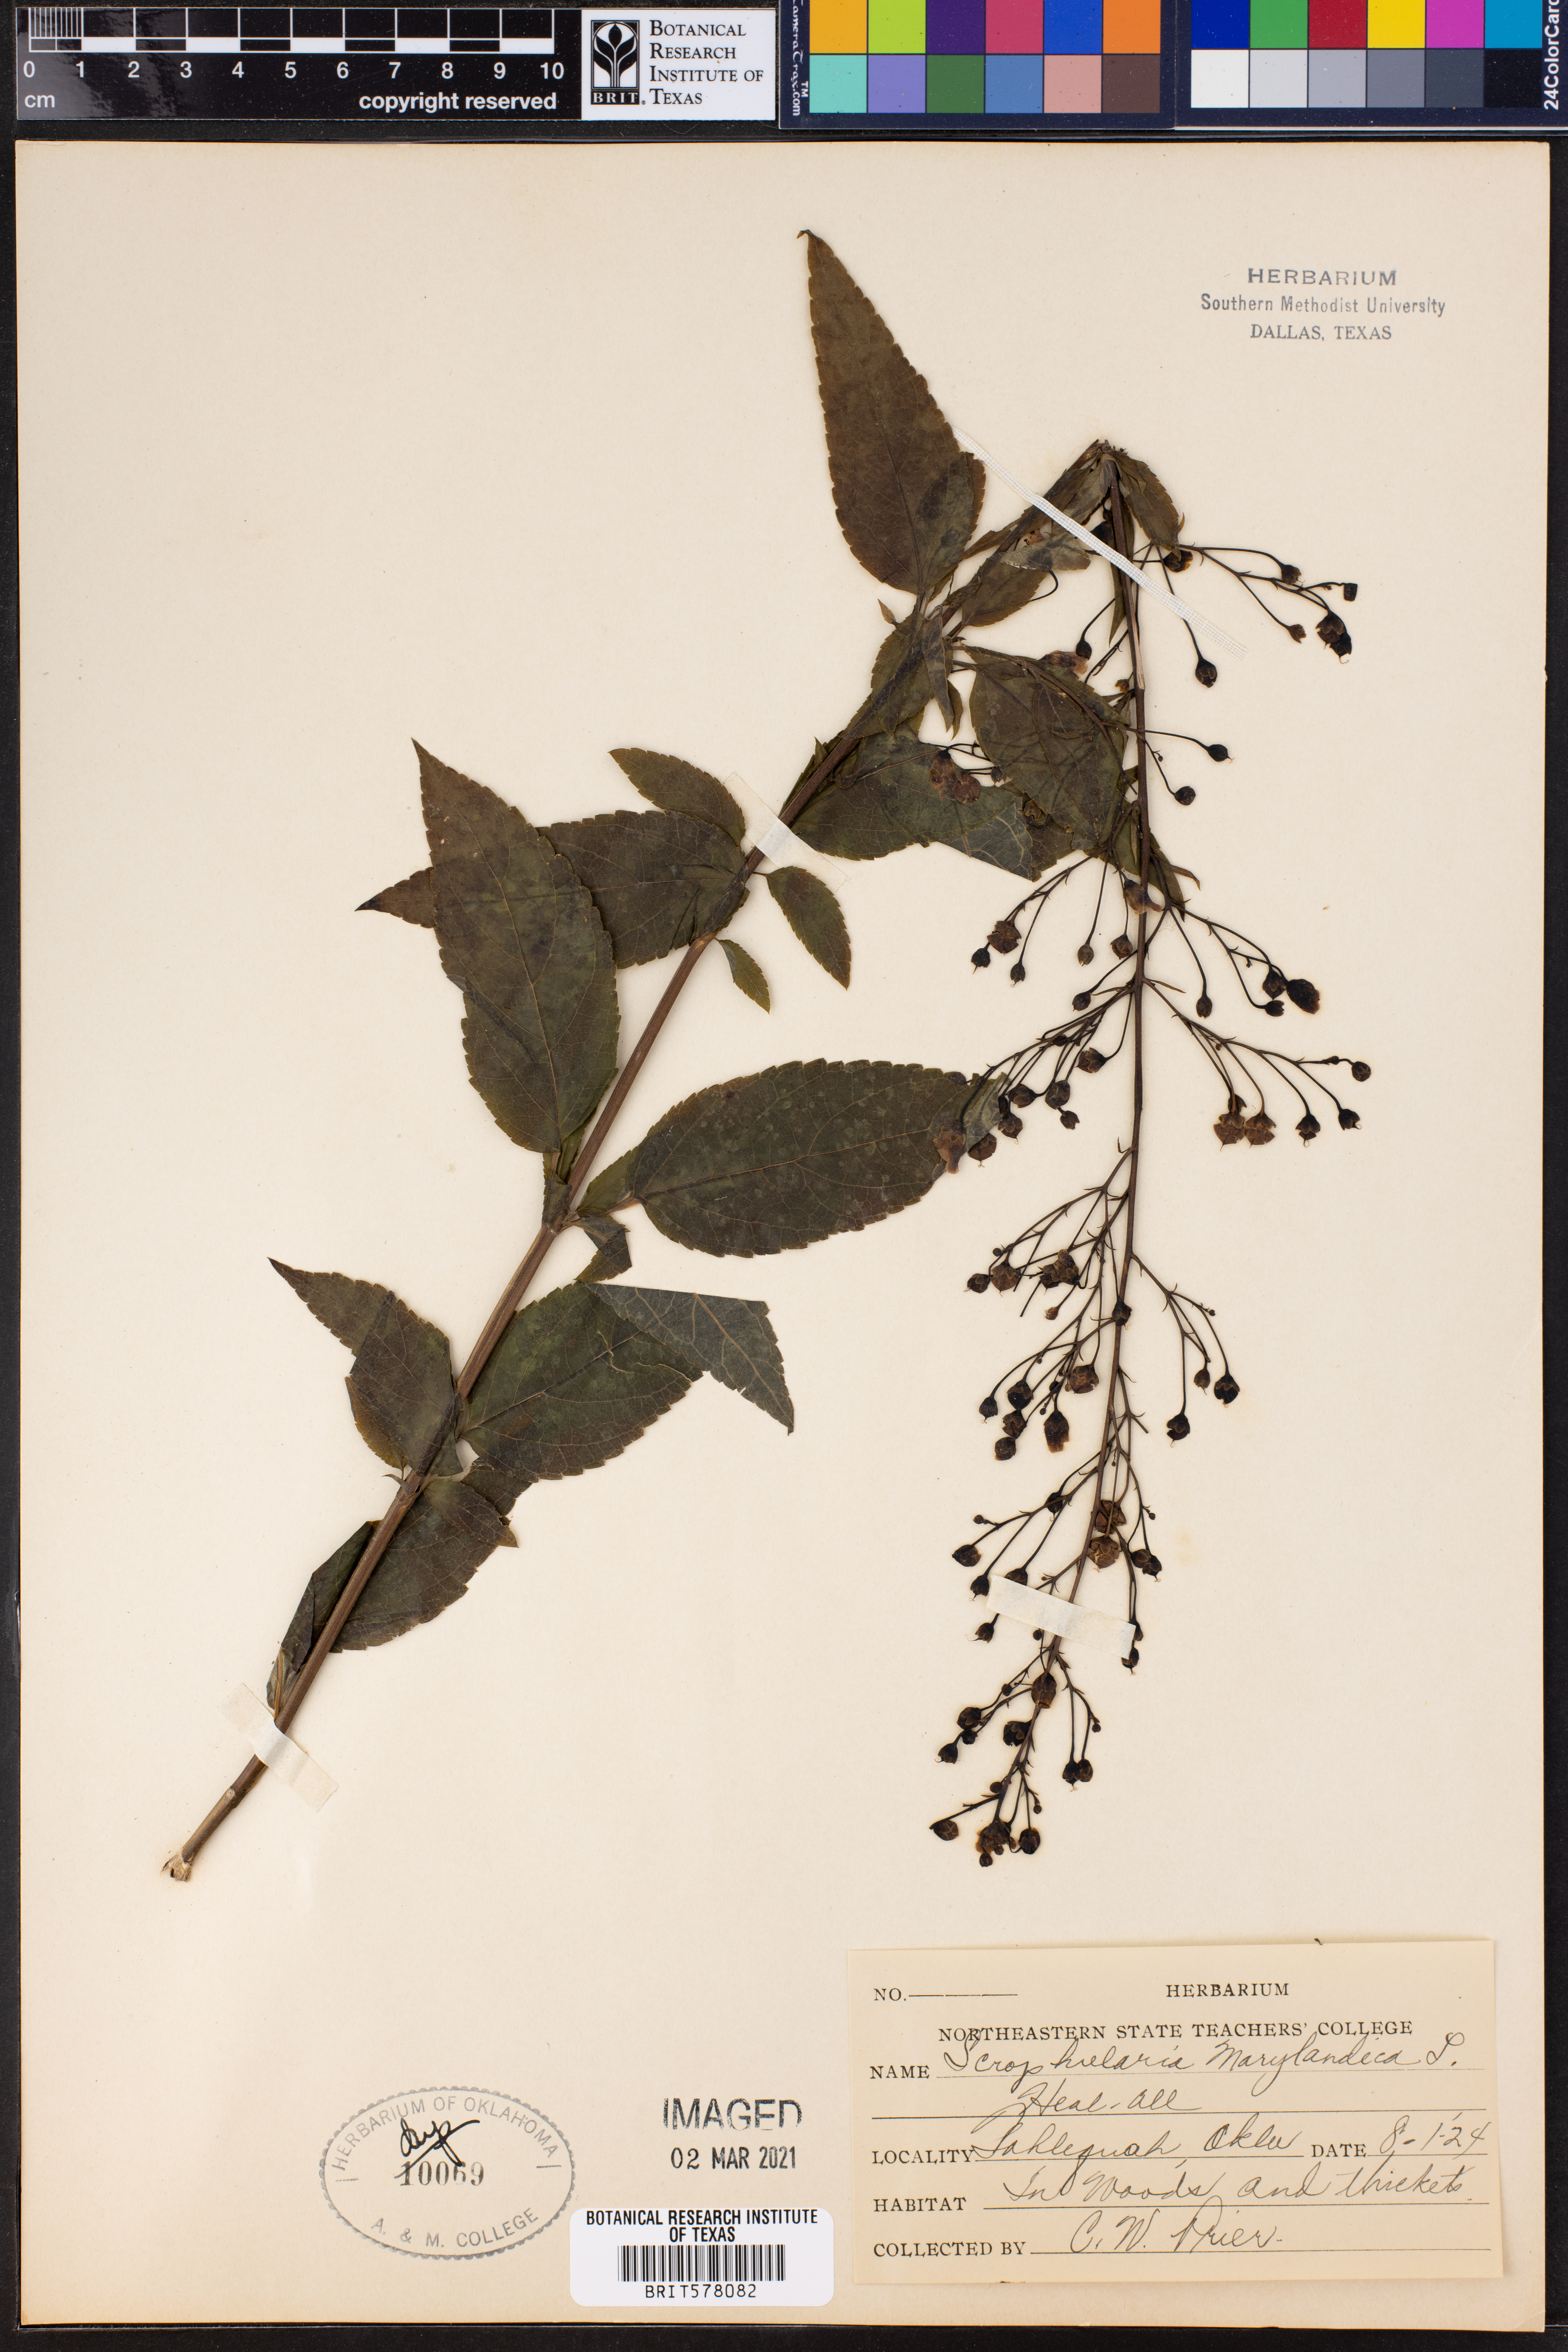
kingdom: Plantae
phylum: Tracheophyta
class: Magnoliopsida
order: Lamiales
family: Scrophulariaceae
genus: Scrophularia
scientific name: Scrophularia marilandica
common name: Eastern figwort
